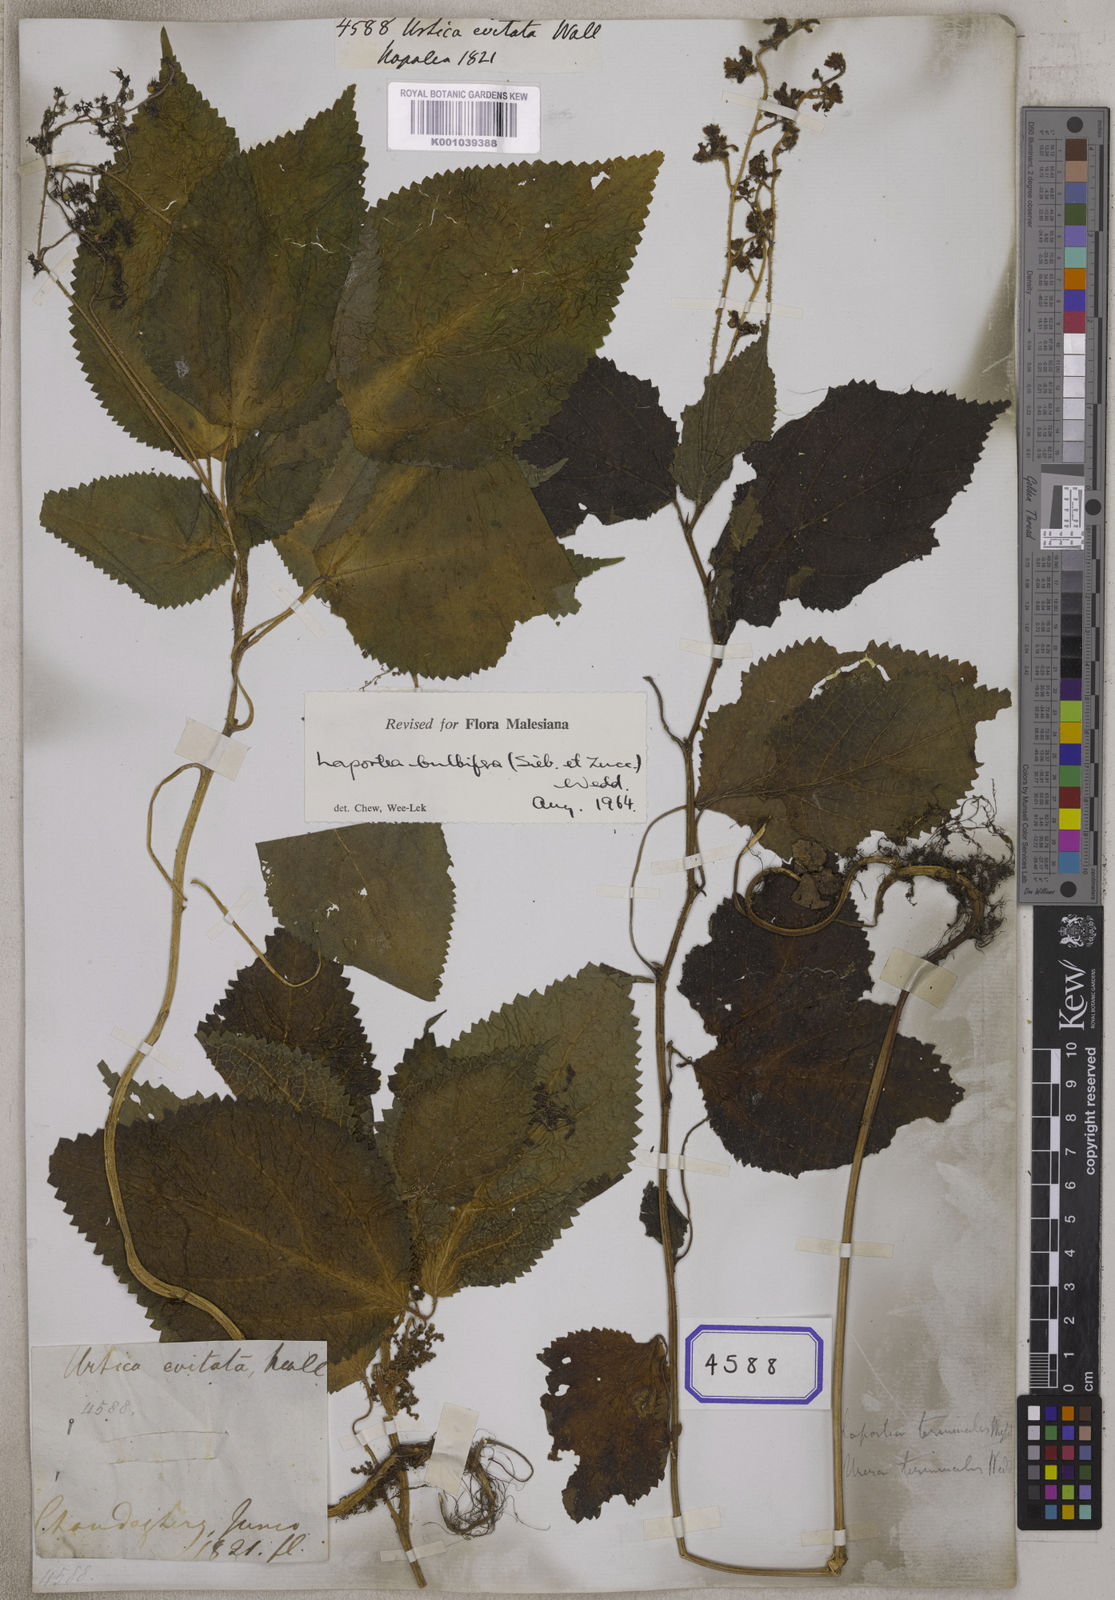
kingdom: Plantae
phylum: Tracheophyta
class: Magnoliopsida
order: Rosales
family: Urticaceae
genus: Laportea
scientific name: Laportea bulbifera
